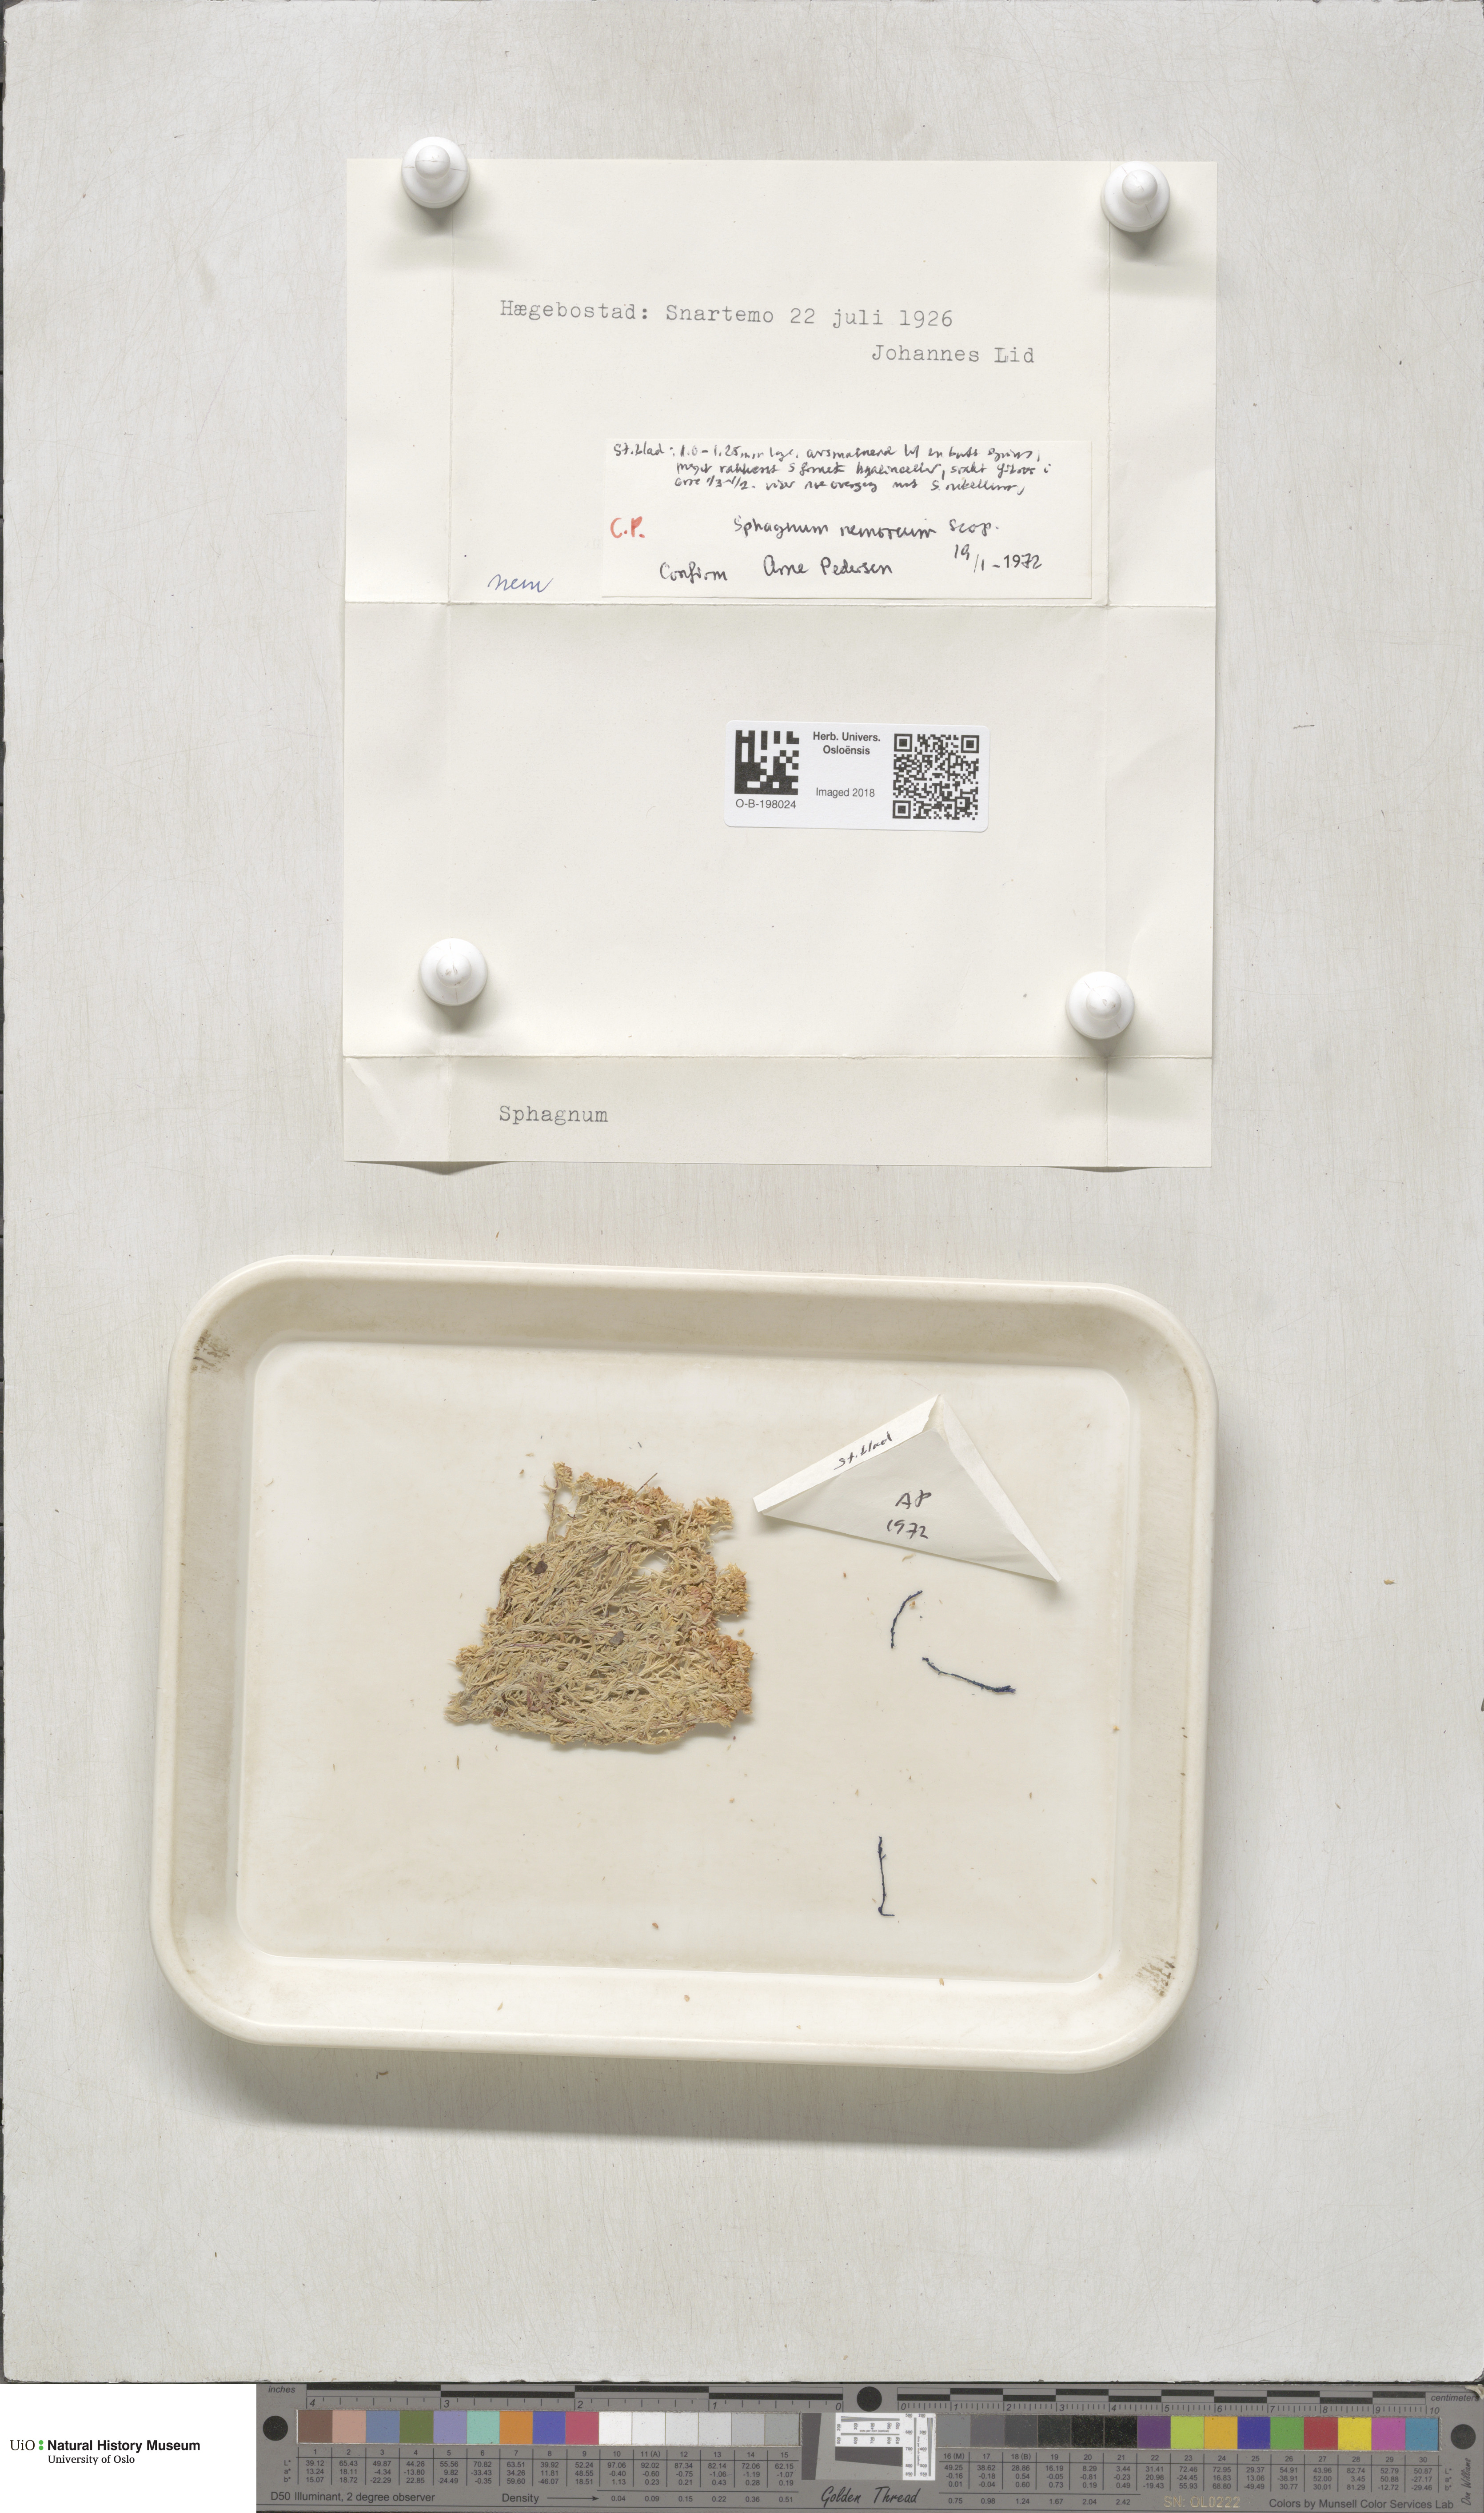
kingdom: Plantae
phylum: Bryophyta
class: Sphagnopsida
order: Sphagnales
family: Sphagnaceae
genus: Sphagnum
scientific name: Sphagnum capillifolium
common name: Small red peat moss
